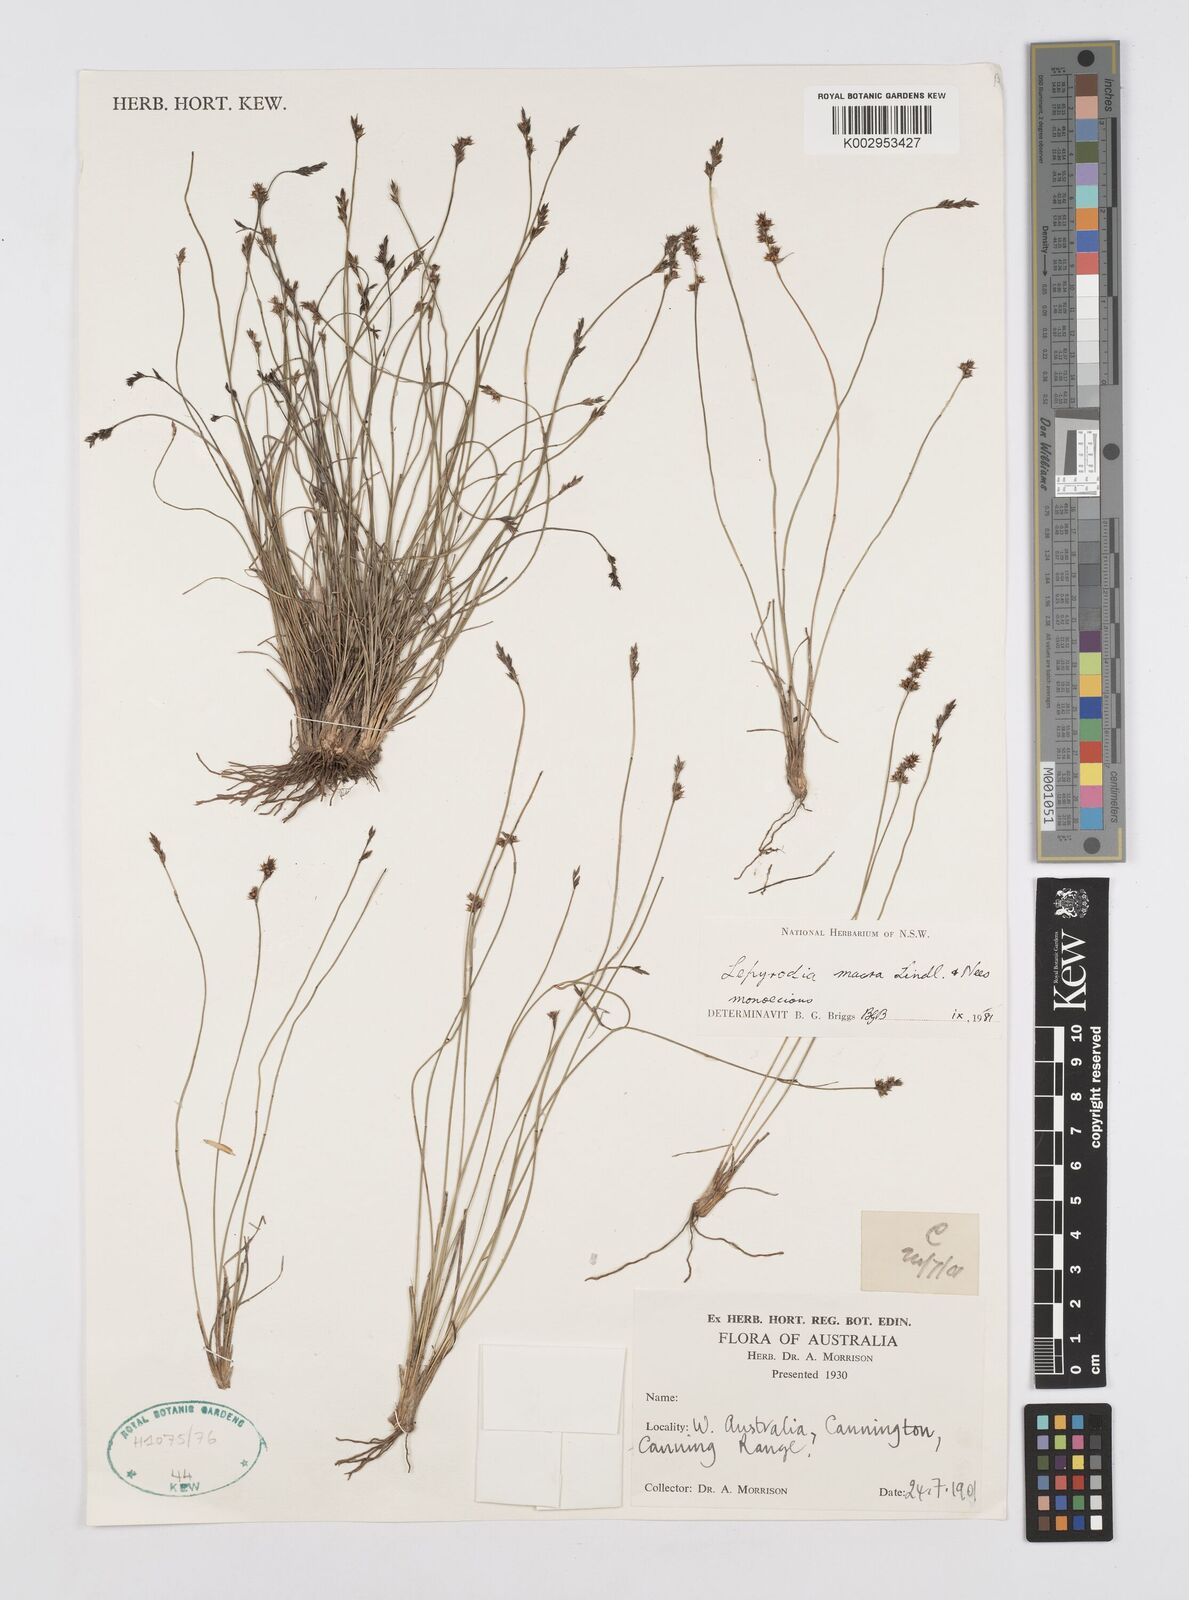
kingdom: Plantae
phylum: Tracheophyta
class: Liliopsida
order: Poales
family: Restionaceae
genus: Lepyrodia
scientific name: Lepyrodia macra
